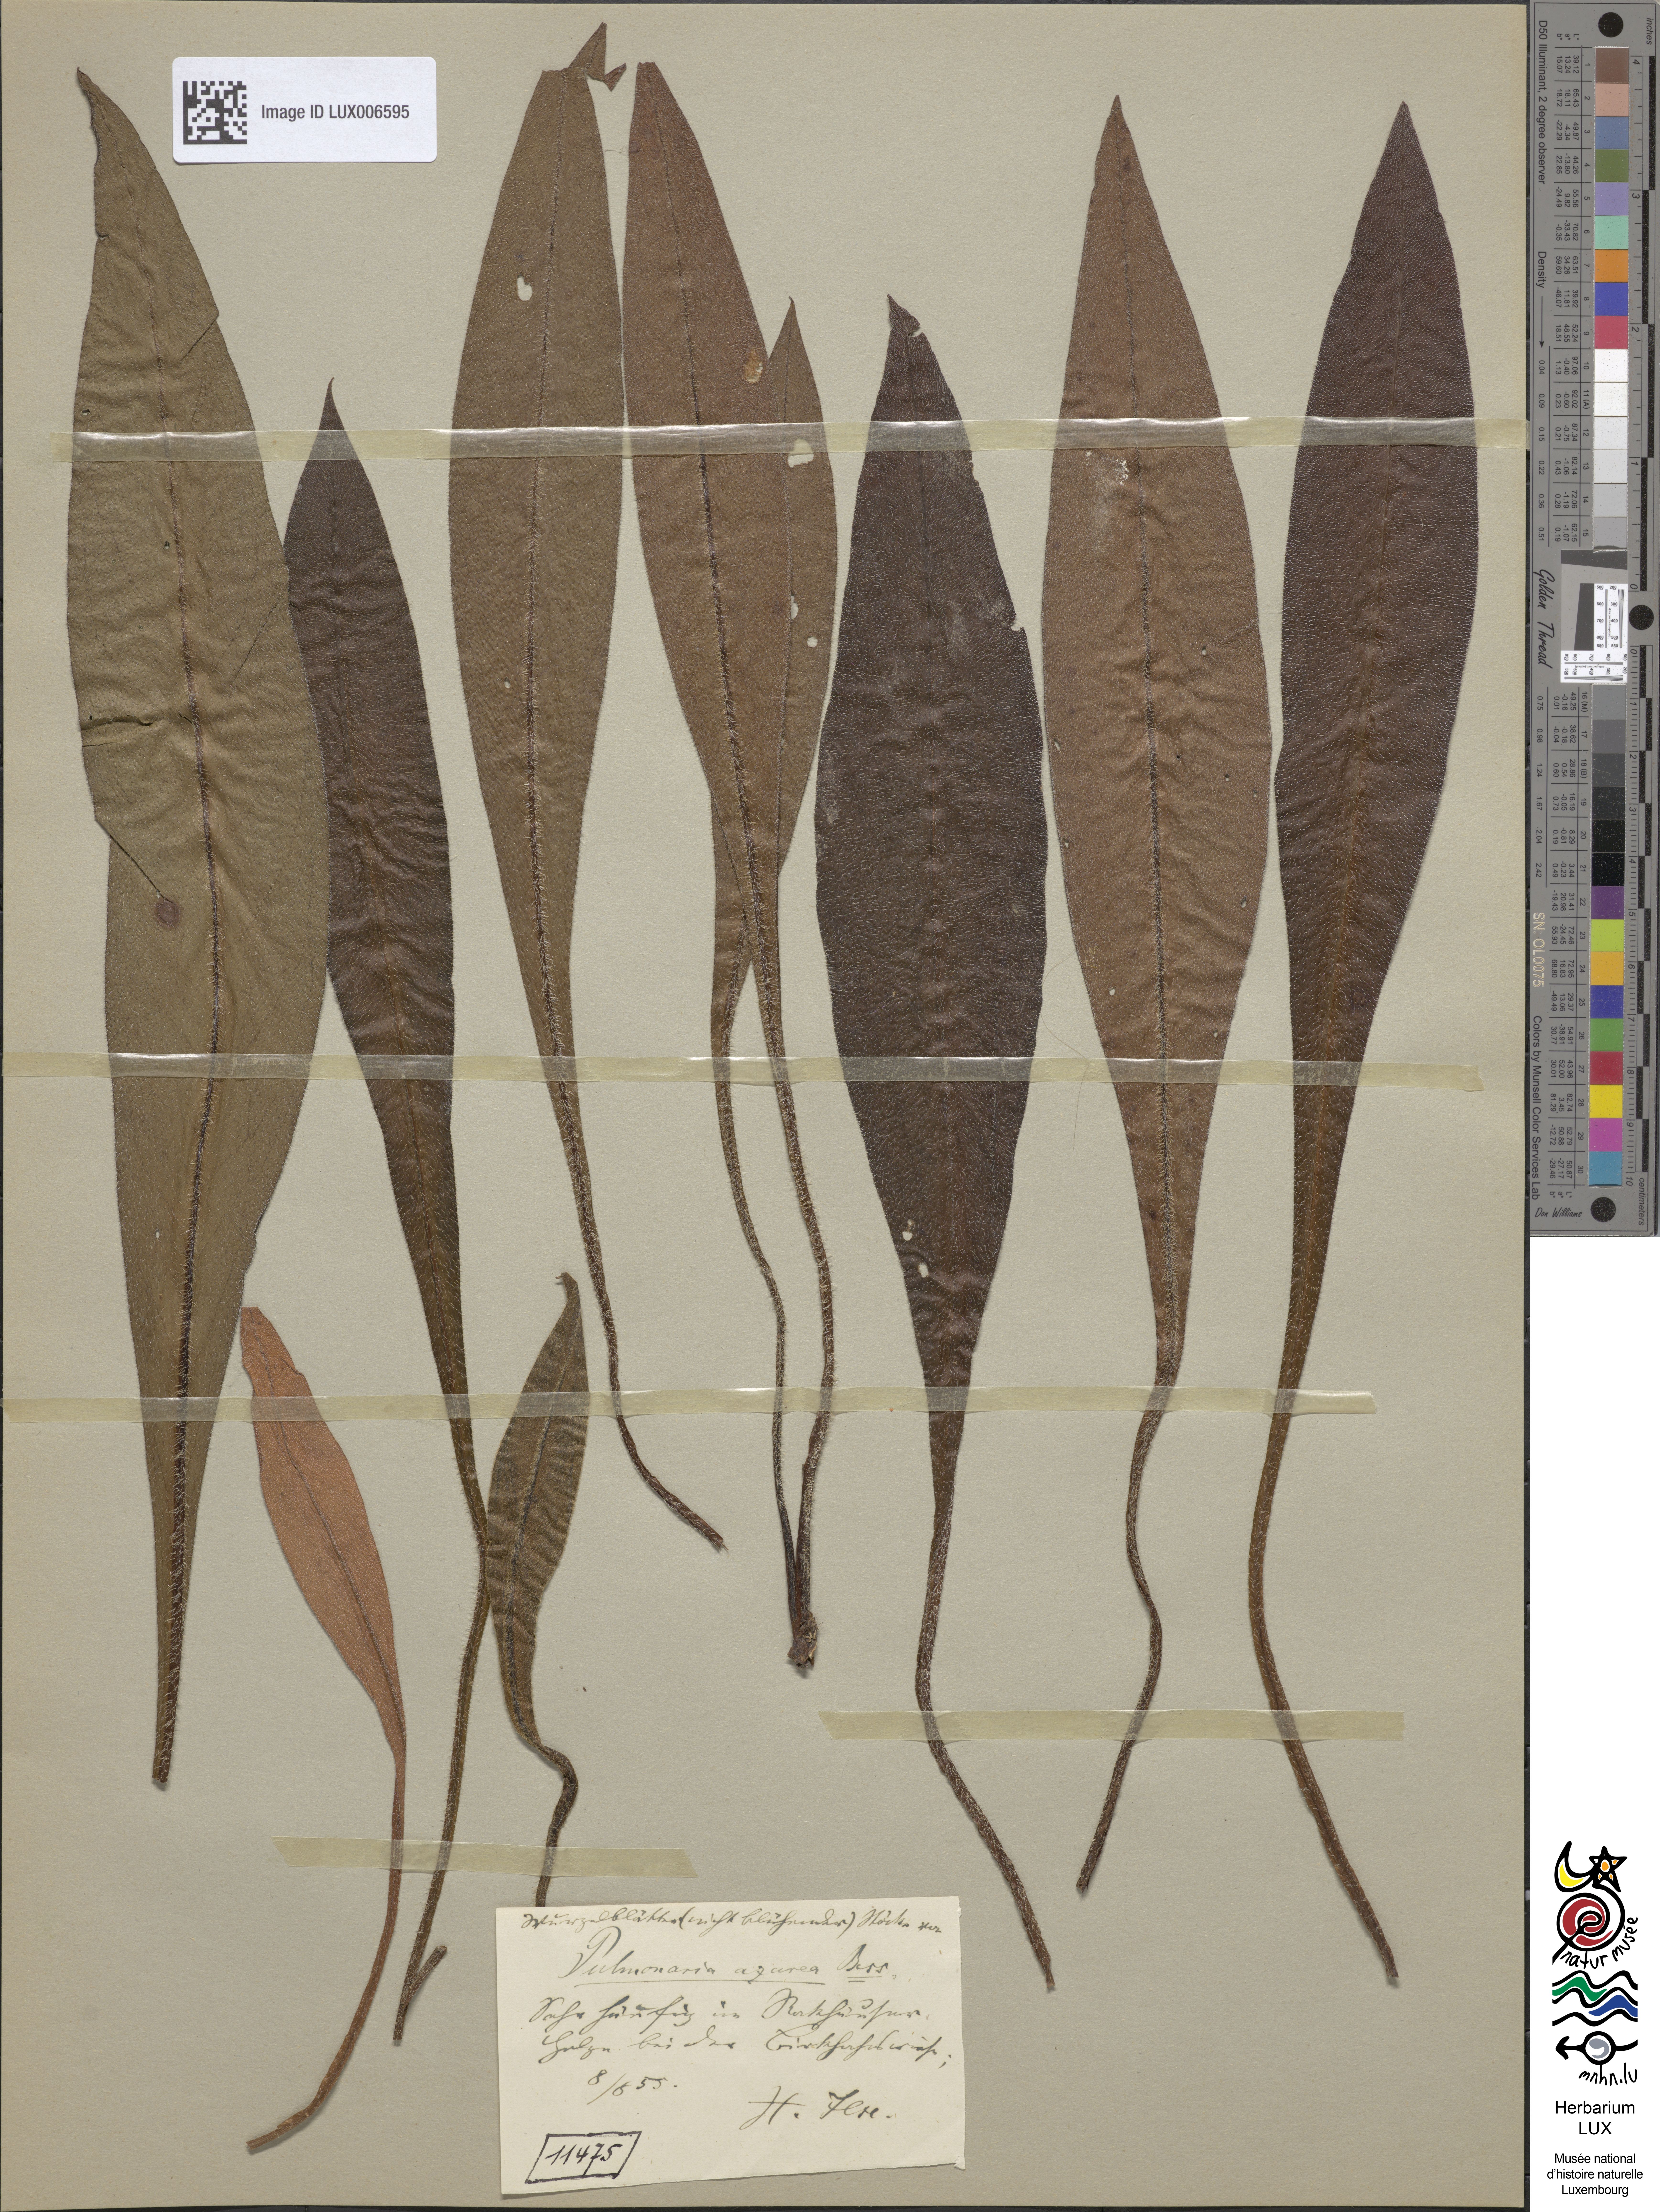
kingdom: Plantae
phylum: Tracheophyta
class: Magnoliopsida
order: Boraginales
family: Boraginaceae
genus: Pulmonaria
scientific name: Pulmonaria angustifolia
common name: Blue cowslip
